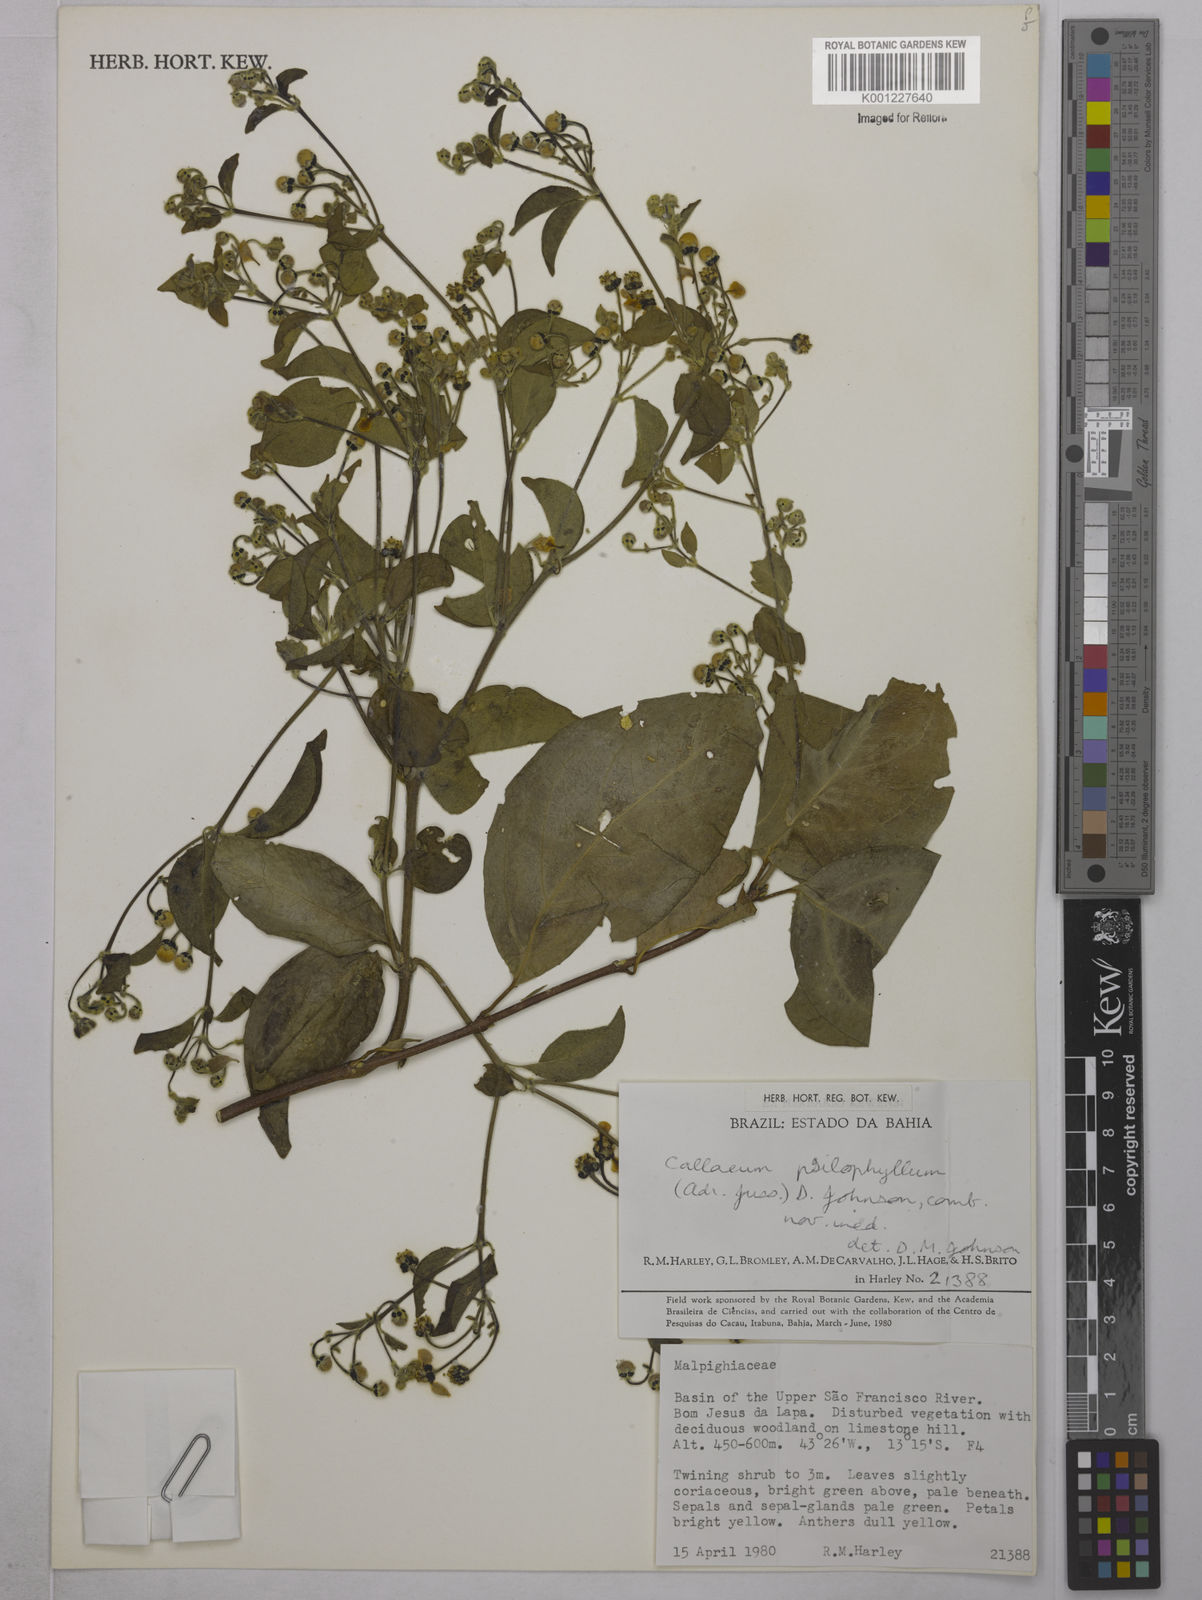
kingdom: Plantae
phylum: Tracheophyta
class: Magnoliopsida
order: Malpighiales
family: Malpighiaceae
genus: Callaeum
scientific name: Callaeum psilophyllum
